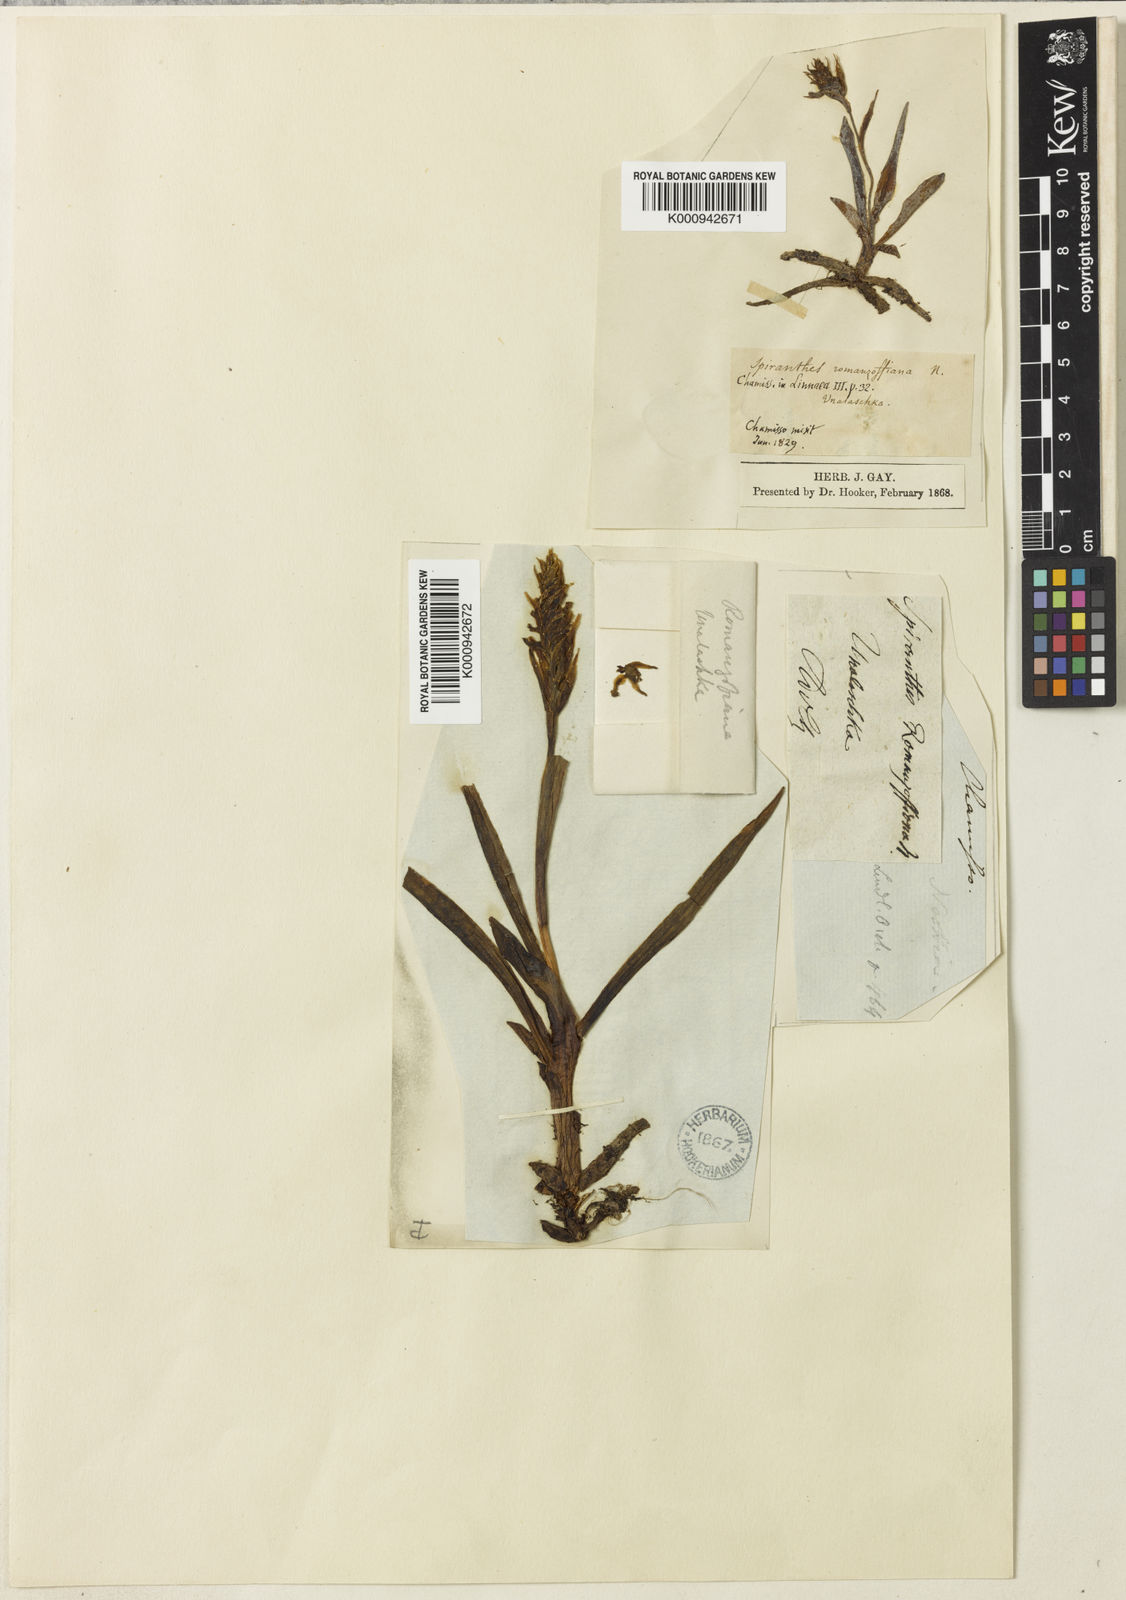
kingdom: Plantae
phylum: Tracheophyta
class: Liliopsida
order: Asparagales
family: Orchidaceae
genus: Spiranthes
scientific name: Spiranthes romanzoffiana
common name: Irish lady's-tresses
